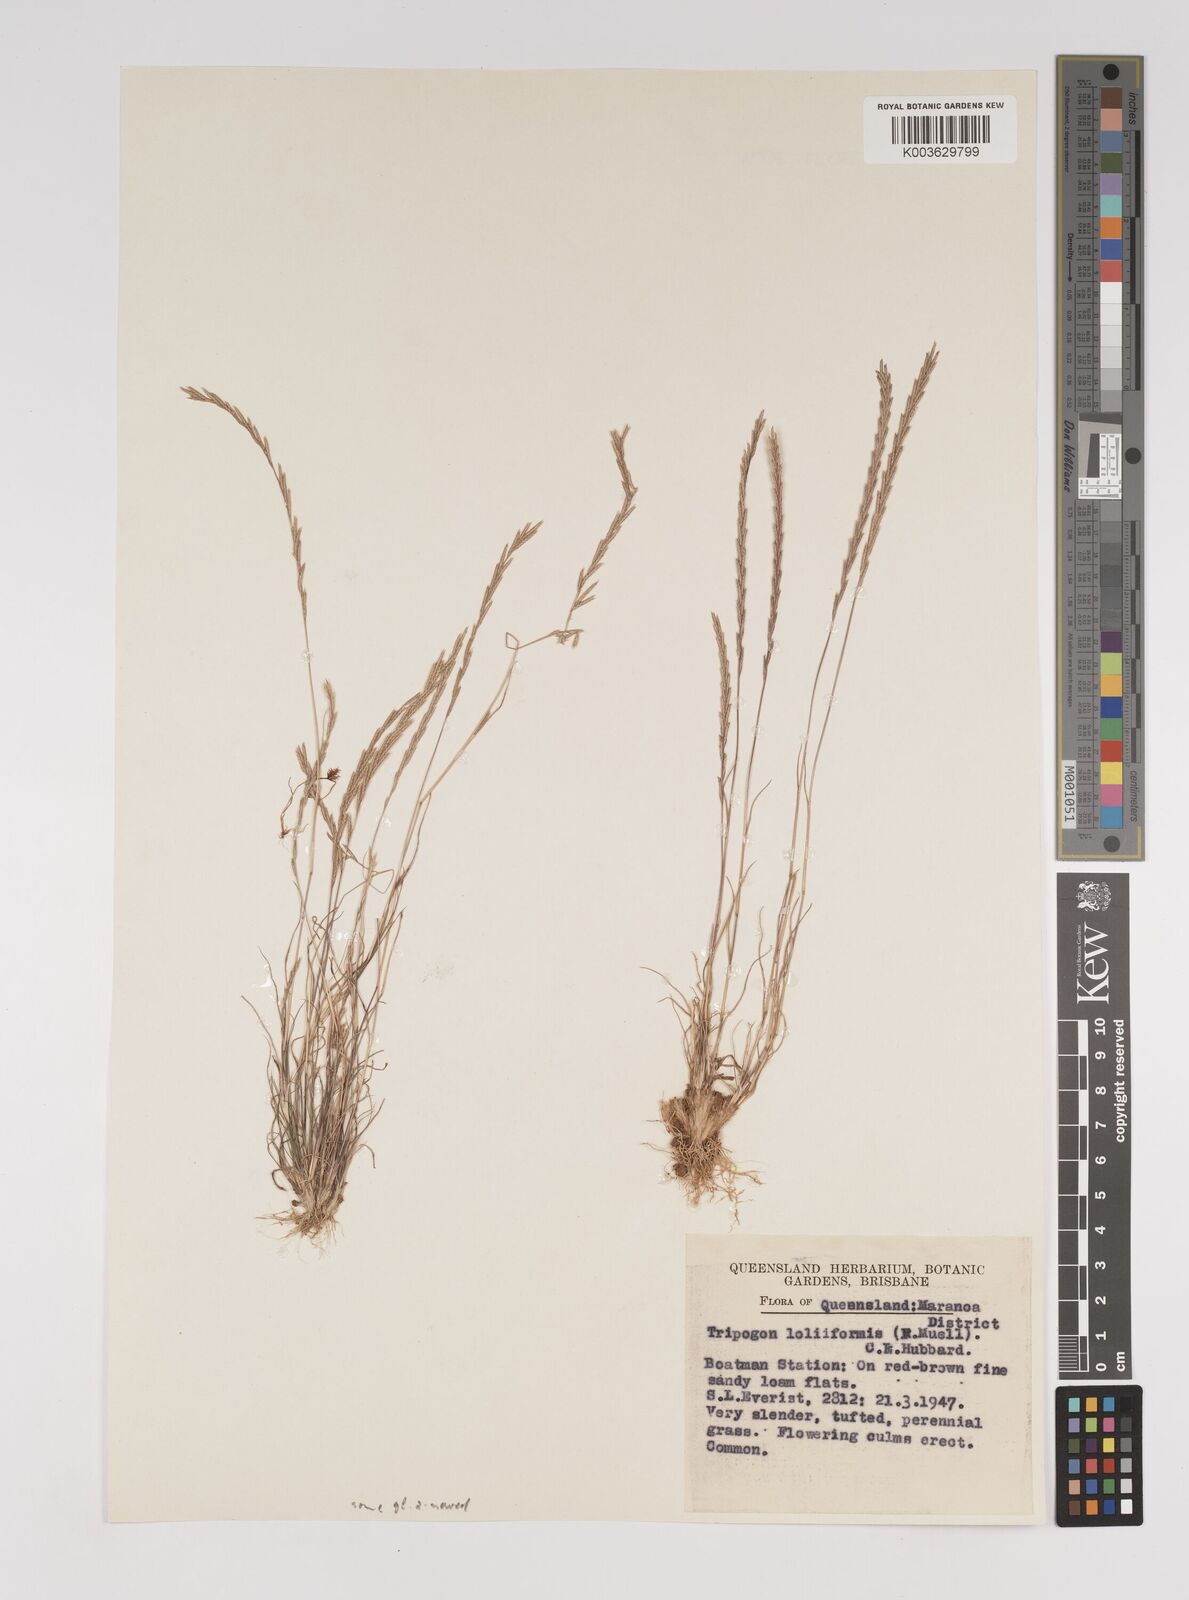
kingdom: Plantae
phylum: Tracheophyta
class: Liliopsida
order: Poales
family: Poaceae
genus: Tripogonella
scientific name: Tripogonella loliiformis
